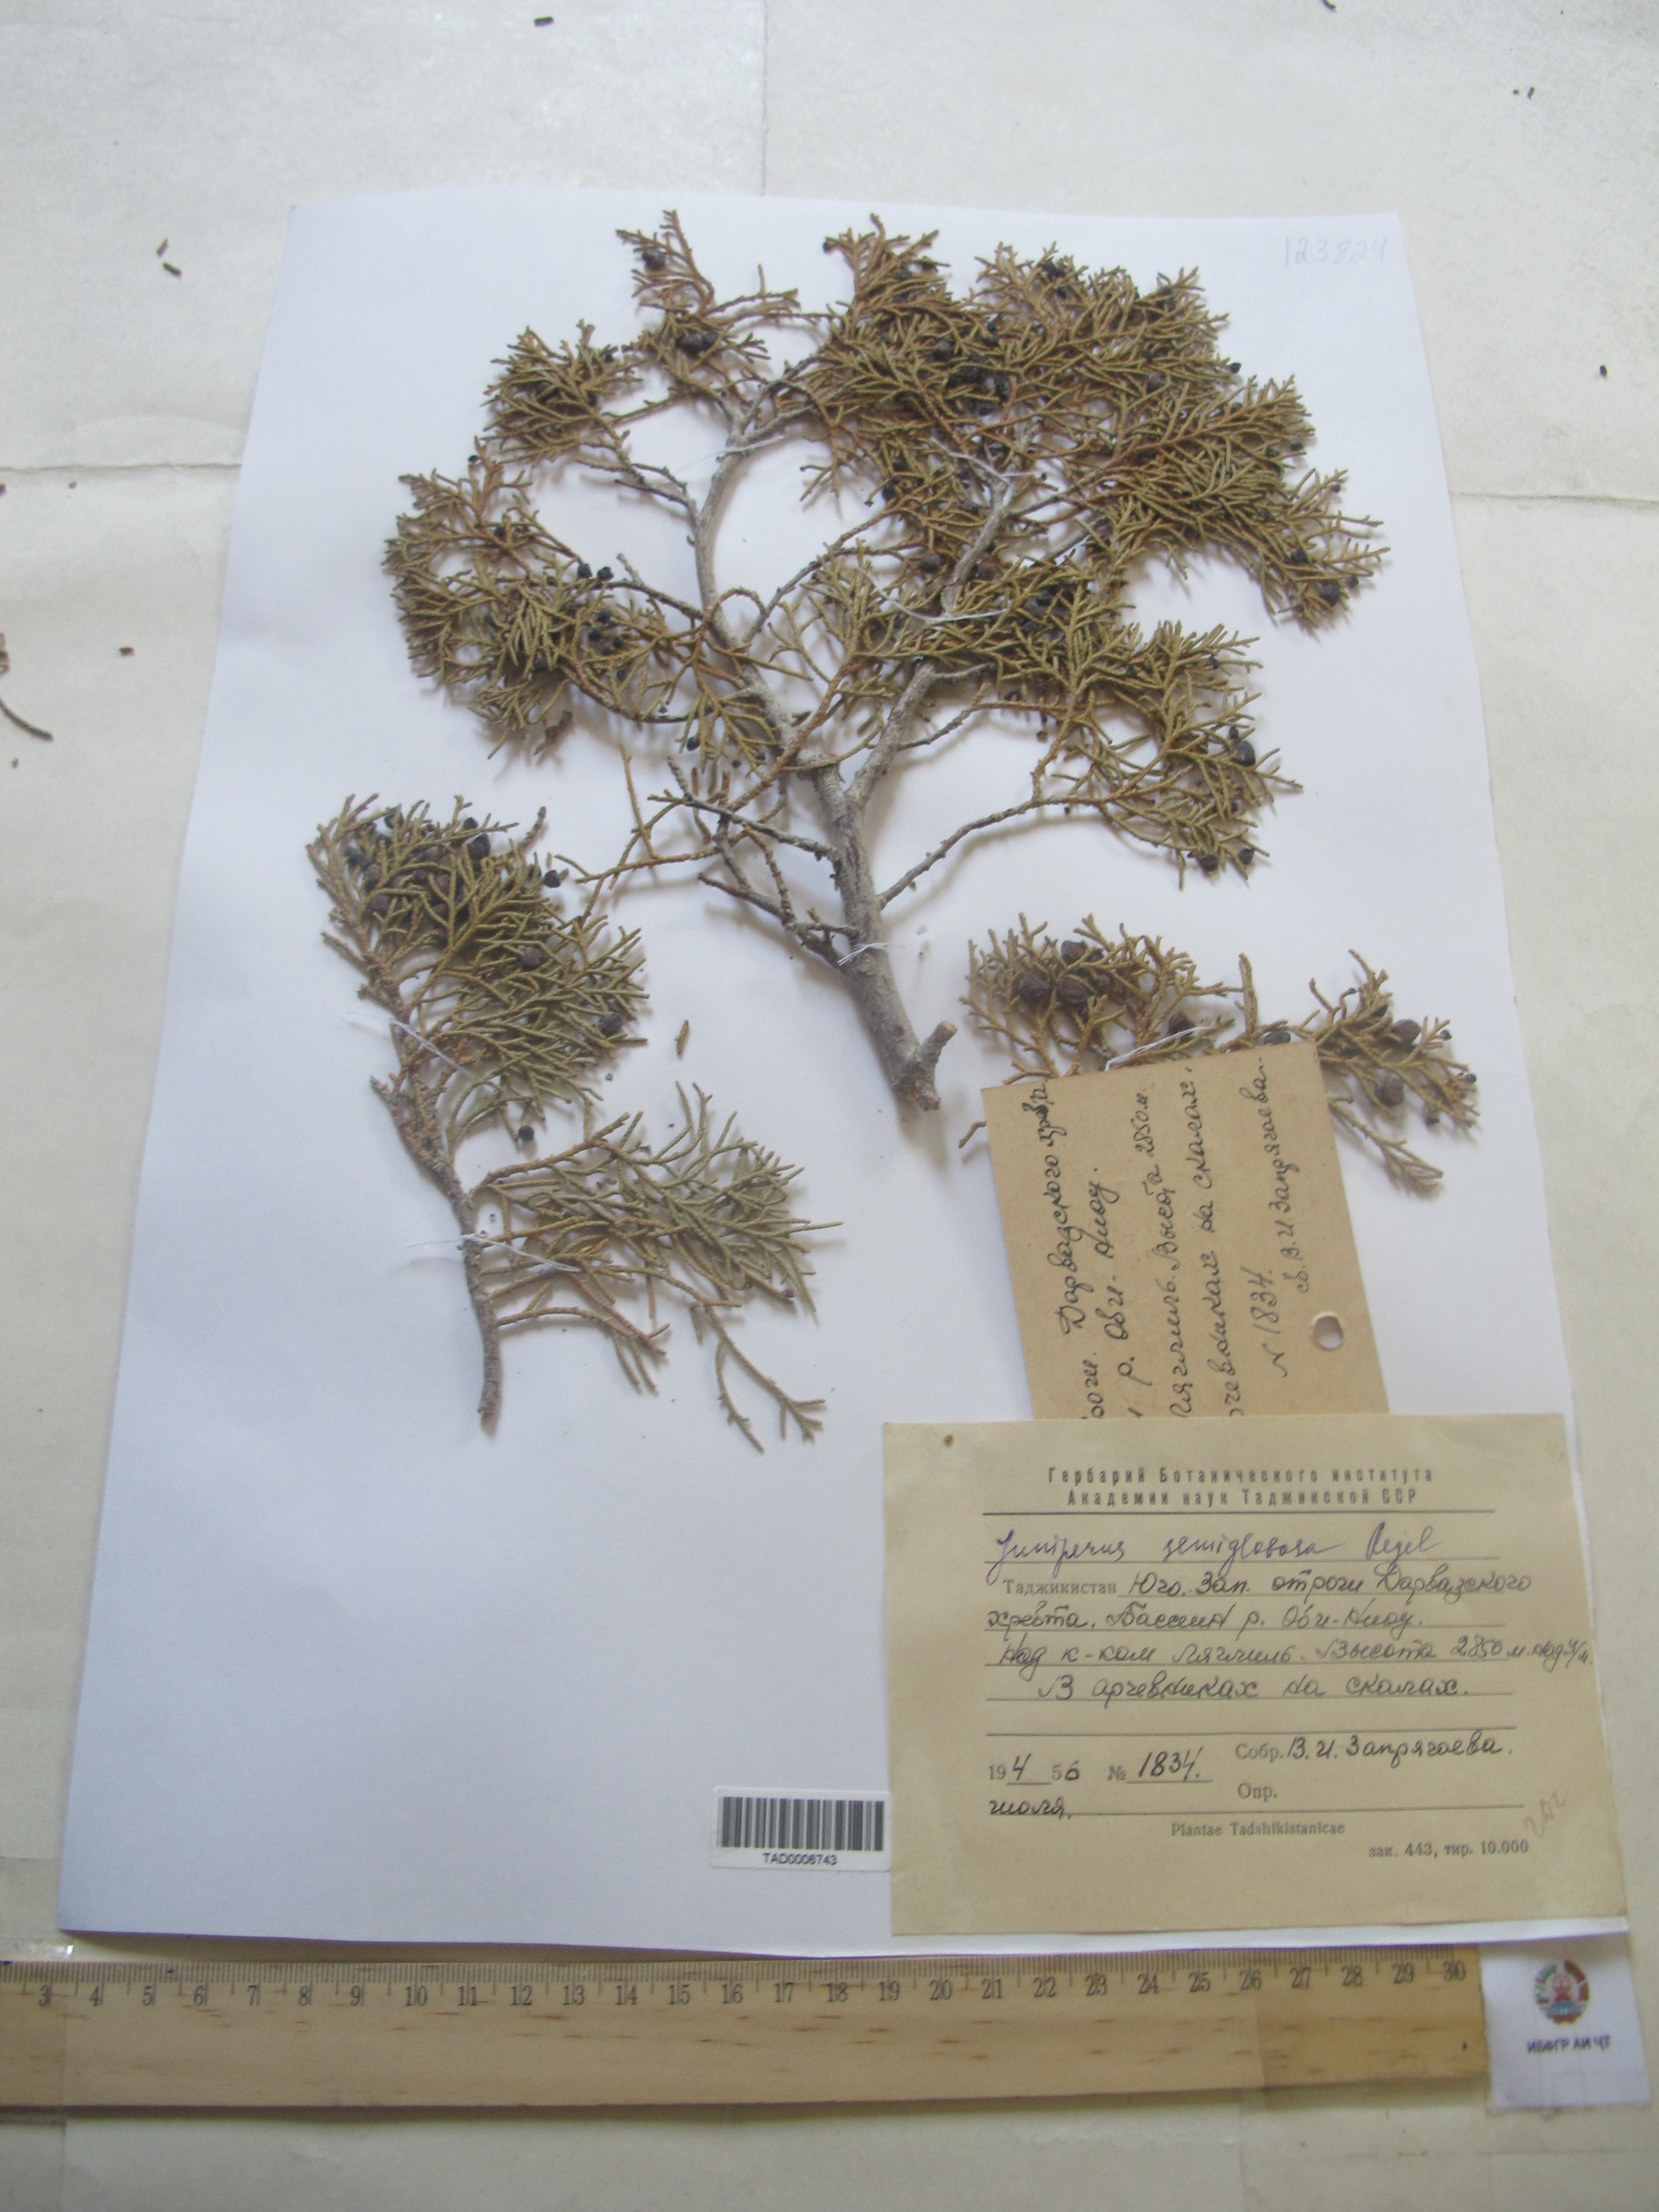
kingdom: Plantae
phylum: Tracheophyta
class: Pinopsida
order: Pinales
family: Cupressaceae
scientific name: Cupressaceae
